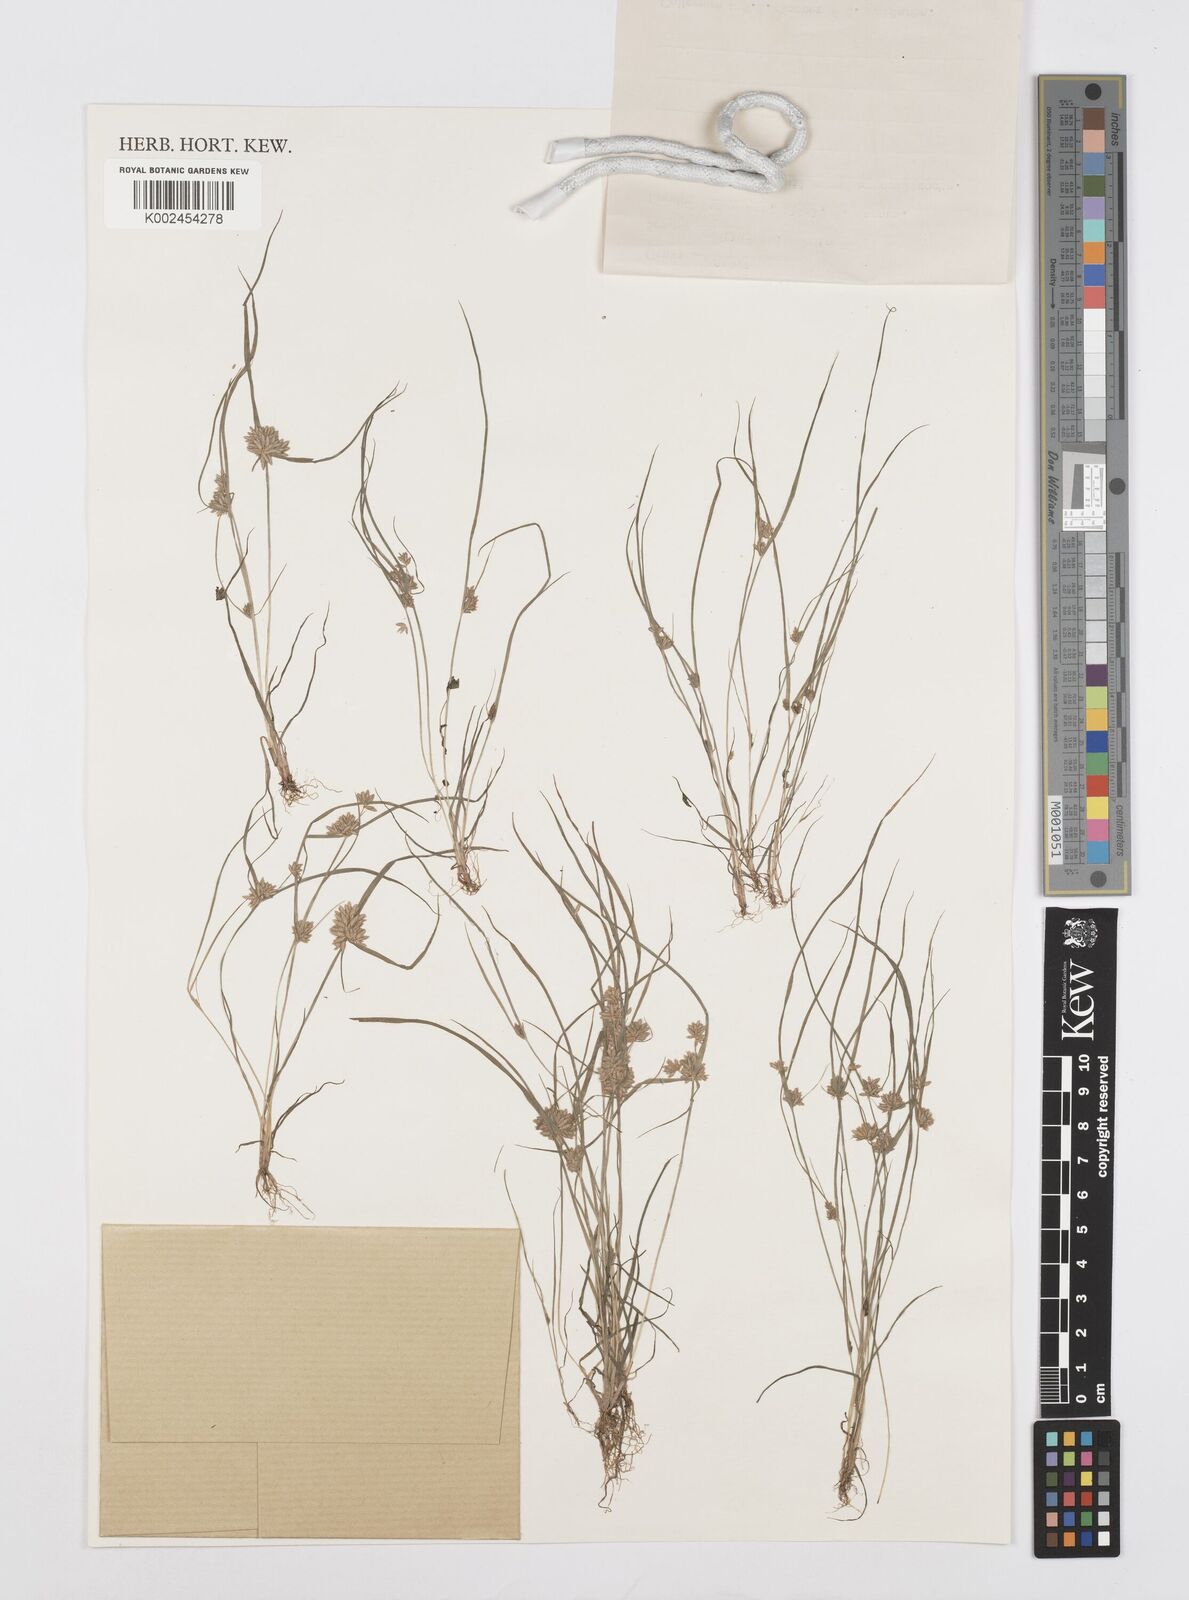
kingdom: Plantae
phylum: Tracheophyta
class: Liliopsida
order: Poales
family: Cyperaceae
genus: Cyperus
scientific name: Cyperus pumilus
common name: Low flatsedge
